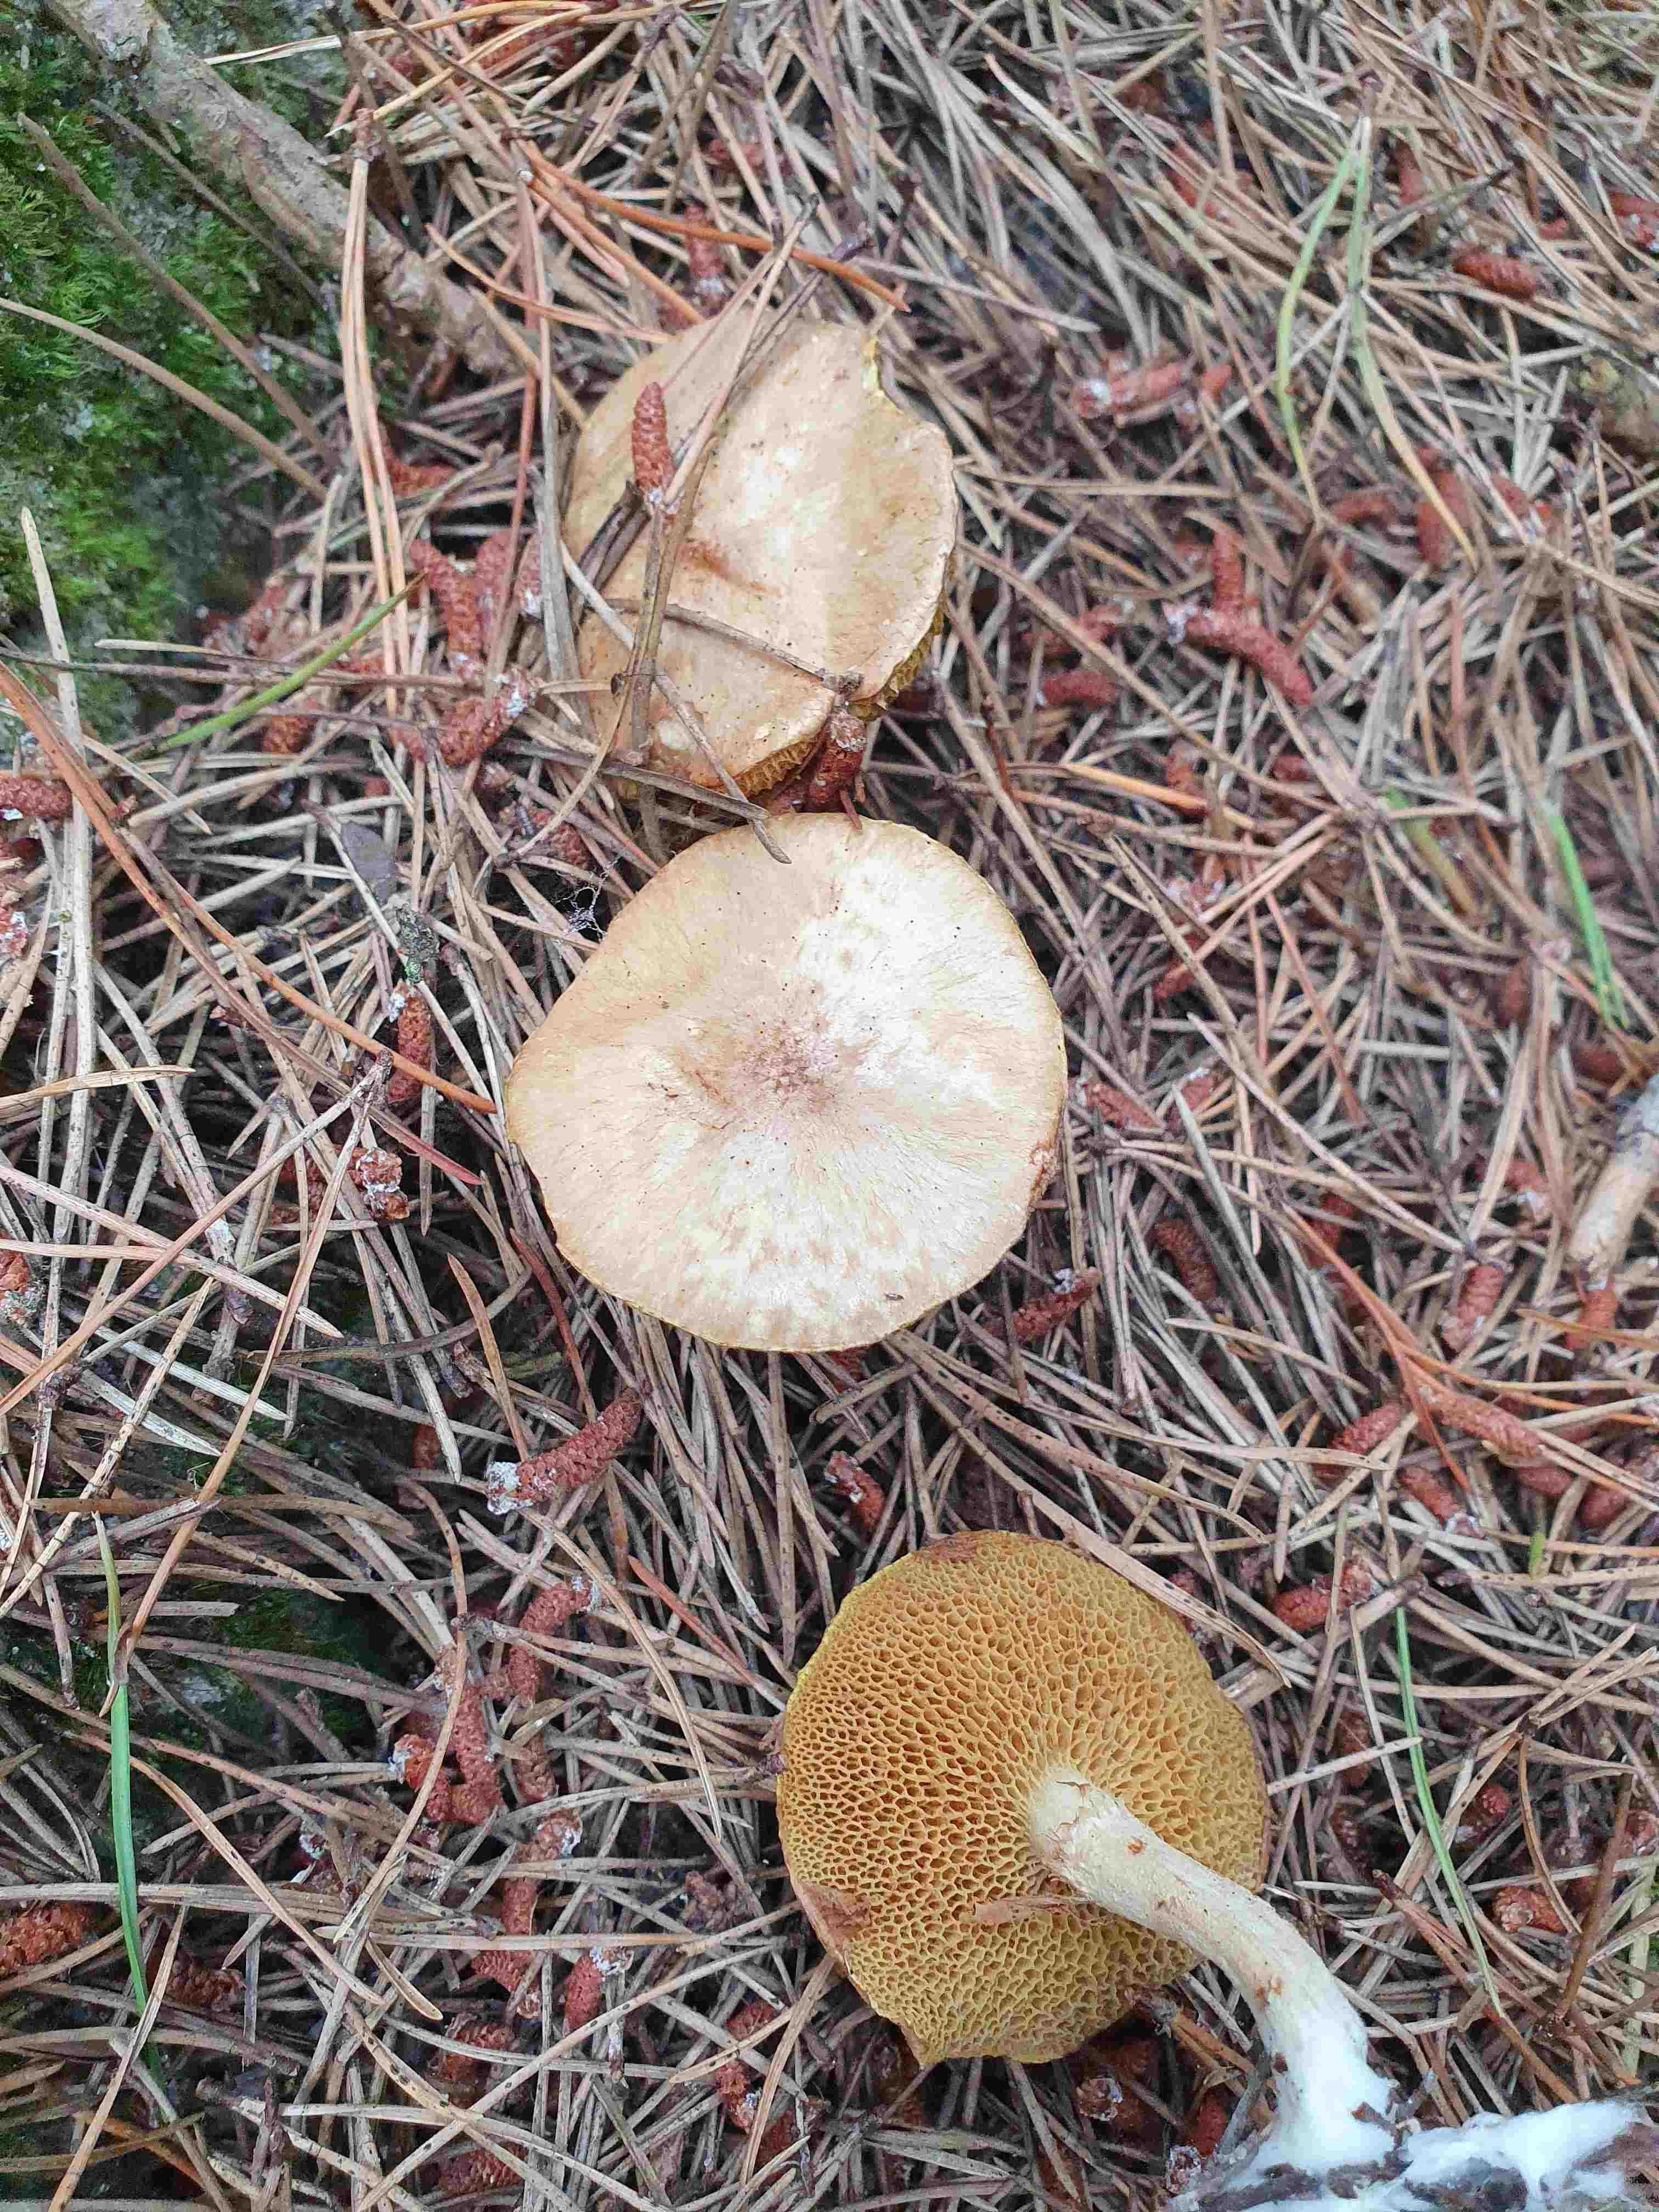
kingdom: Fungi
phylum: Basidiomycota
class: Agaricomycetes
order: Boletales
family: Suillaceae
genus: Suillus
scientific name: Suillus flavidus
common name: mose-slimrørhat
